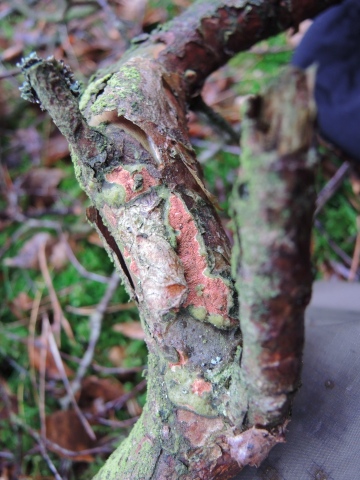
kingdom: Fungi
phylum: Basidiomycota
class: Agaricomycetes
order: Polyporales
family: Irpicaceae
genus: Meruliopsis
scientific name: Meruliopsis taxicola
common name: purpurbrun foldporesvamp
